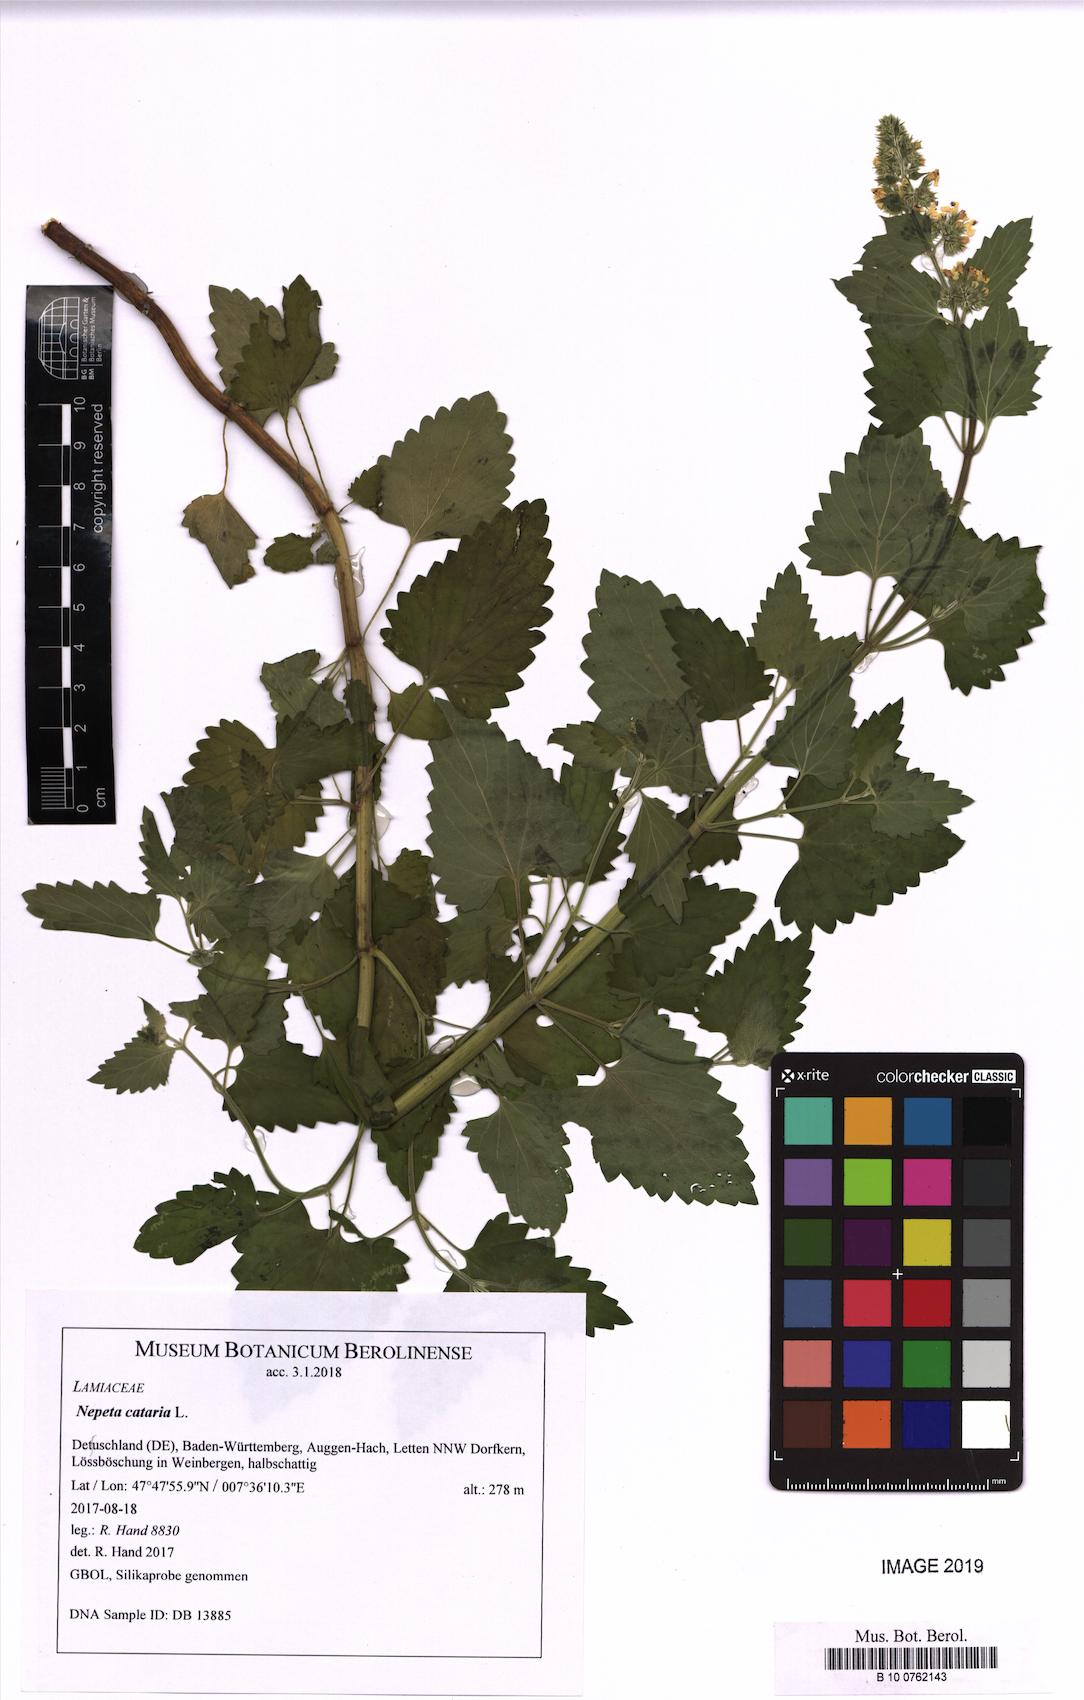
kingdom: Plantae
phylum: Tracheophyta
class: Magnoliopsida
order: Lamiales
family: Lamiaceae
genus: Nepeta
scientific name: Nepeta cataria
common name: Catnip
